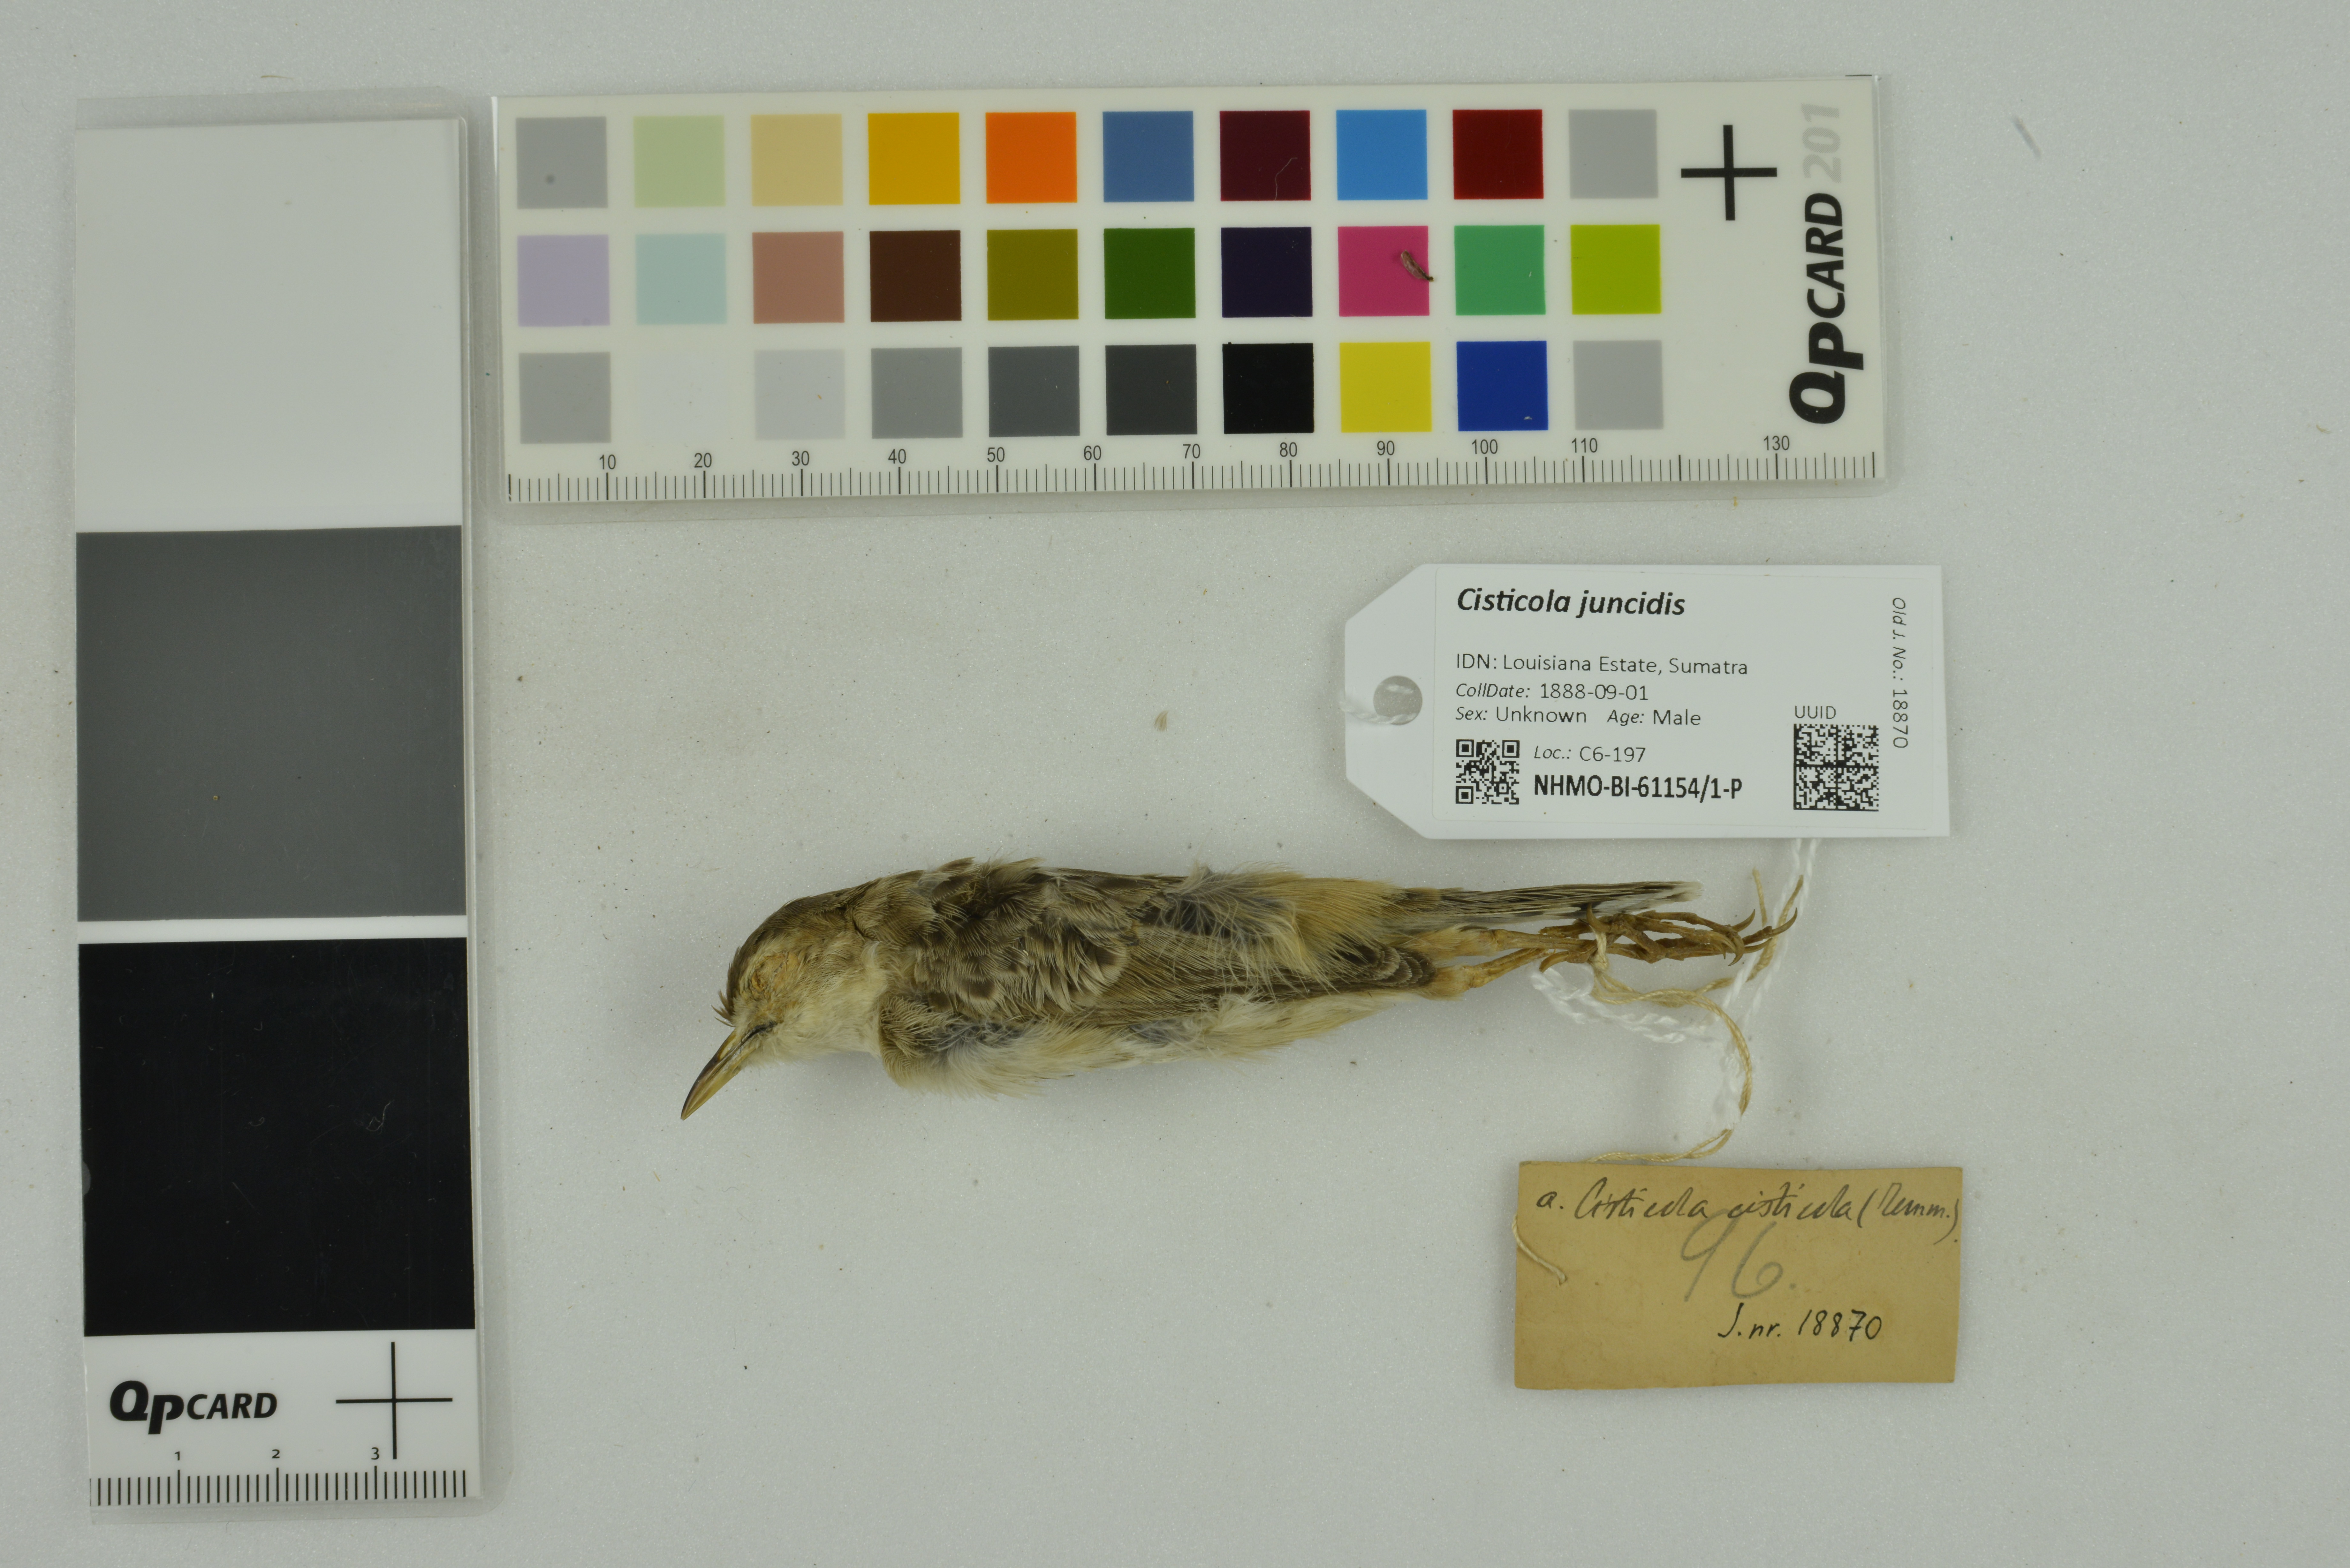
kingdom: Animalia
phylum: Chordata
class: Aves
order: Passeriformes
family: Cisticolidae
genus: Cisticola
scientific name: Cisticola juncidis
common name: Zitting cisticola
